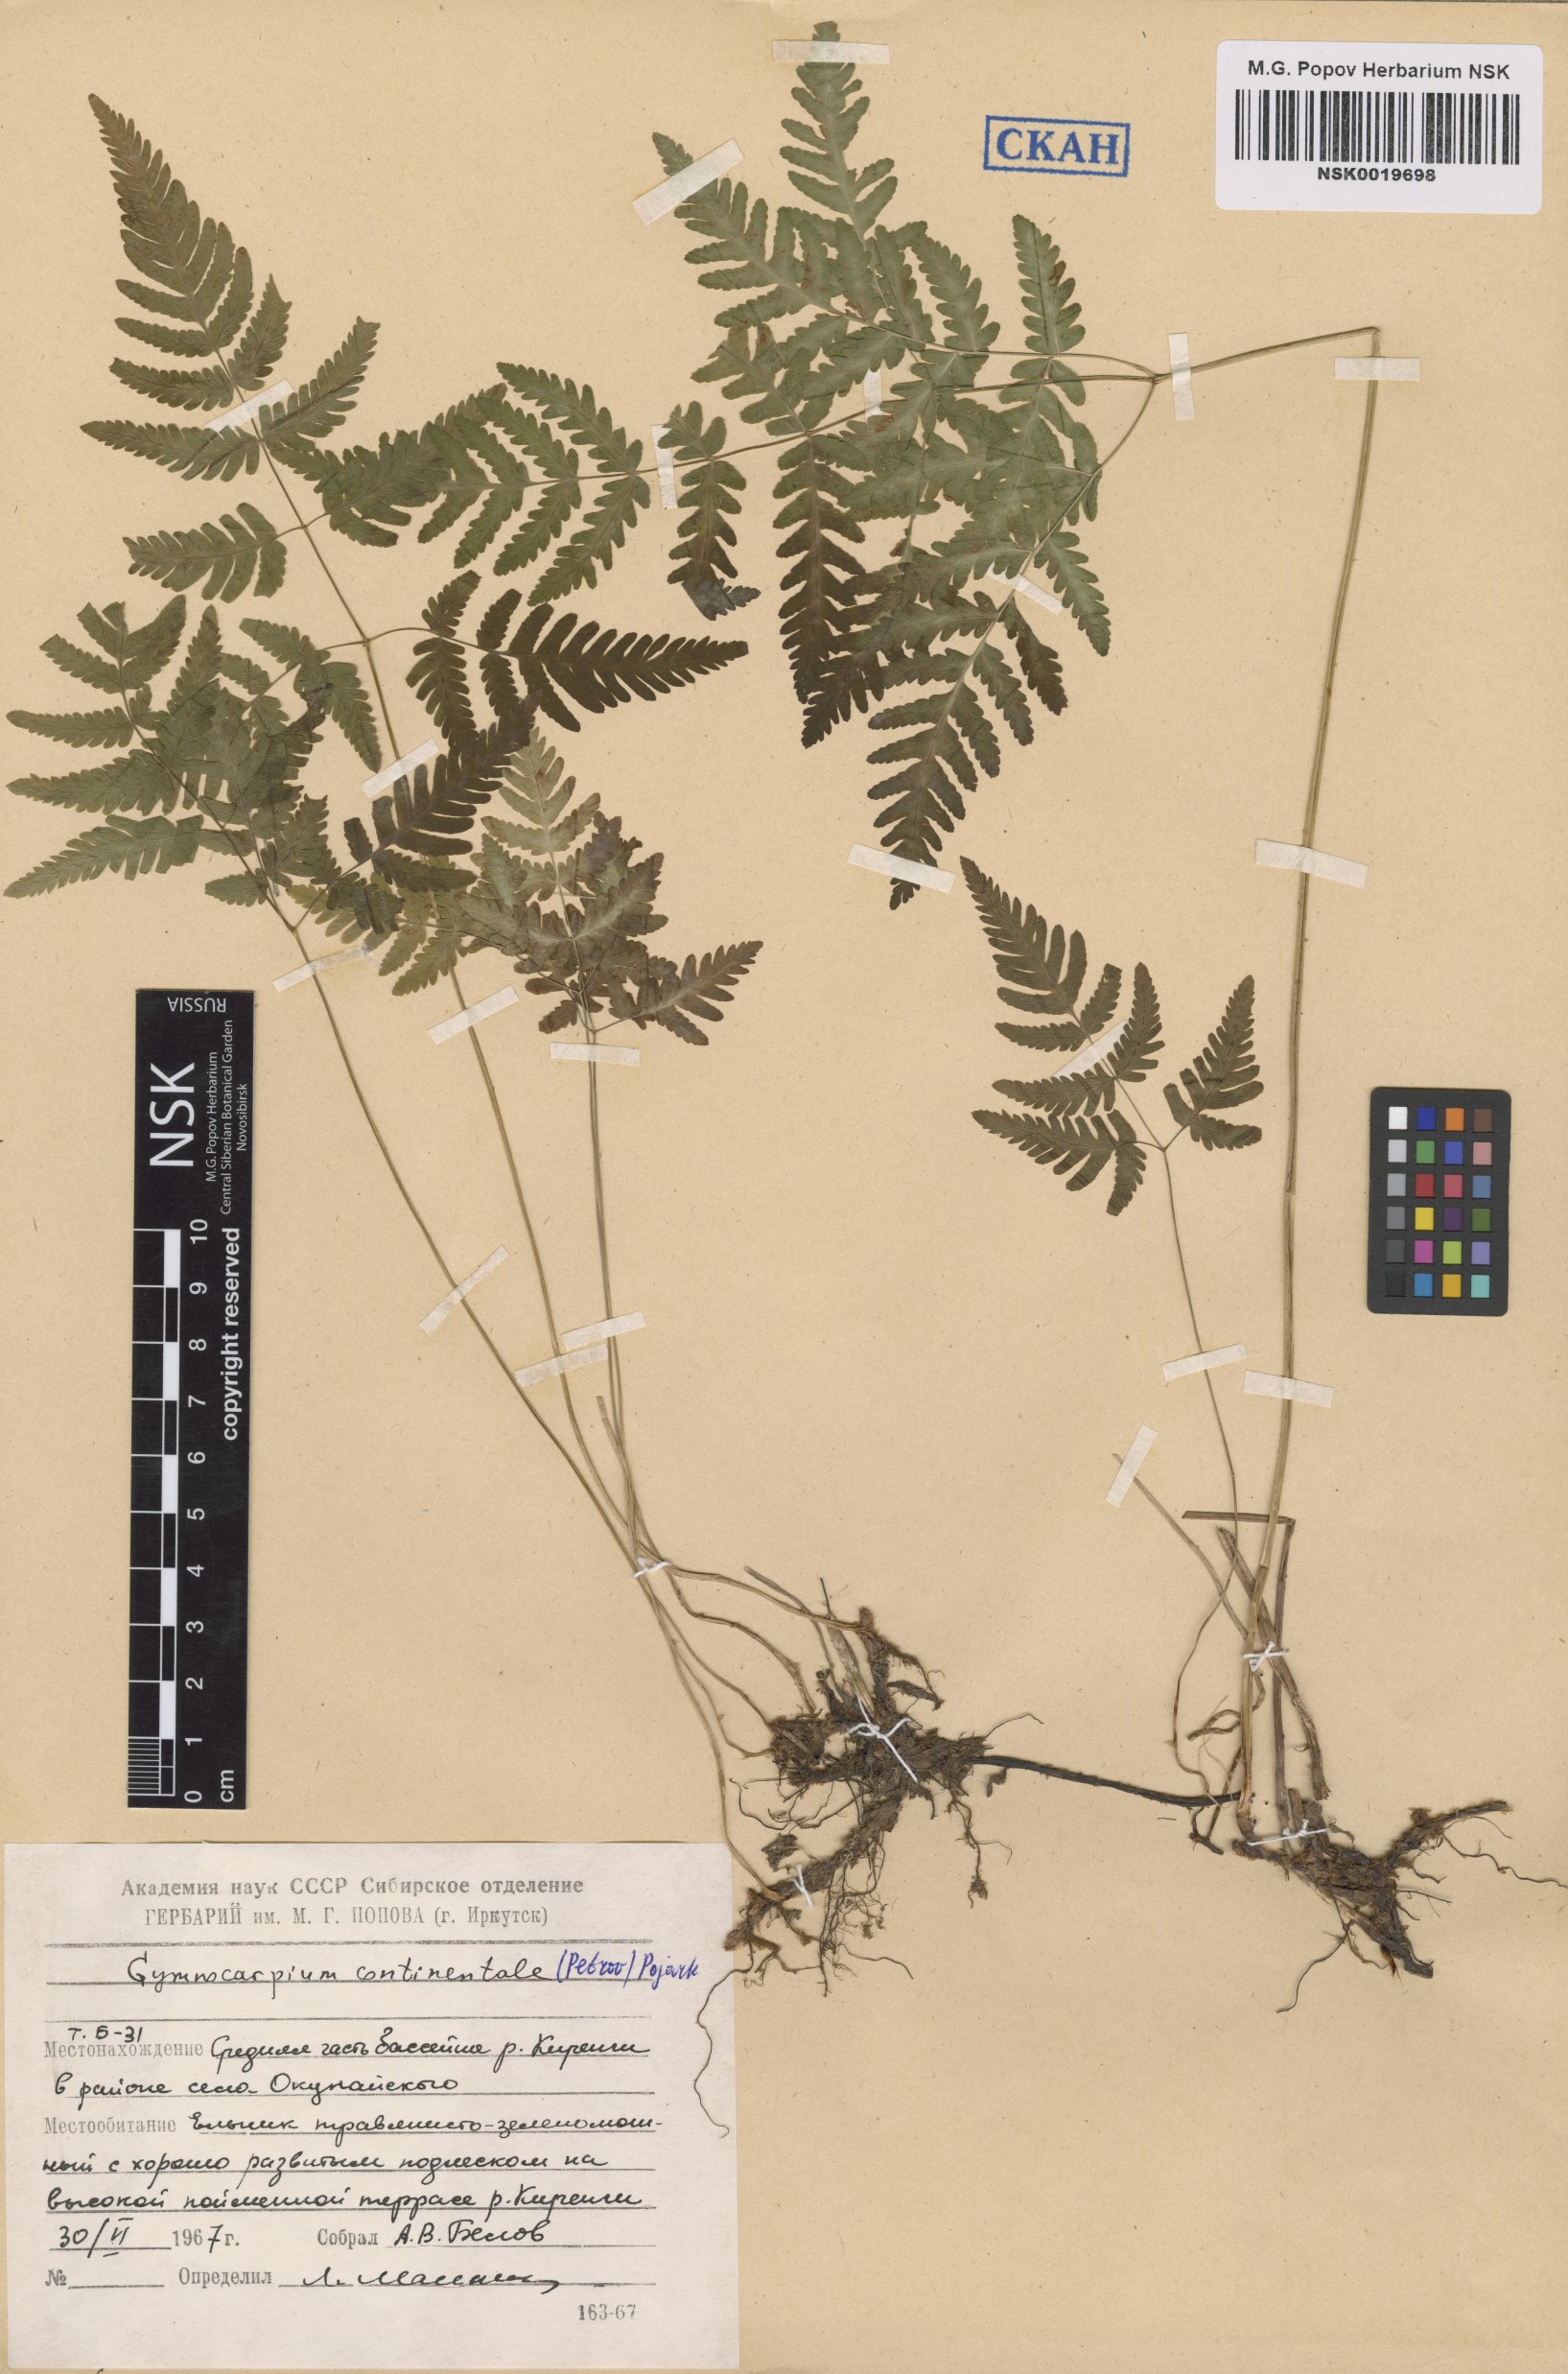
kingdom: Plantae
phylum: Tracheophyta
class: Polypodiopsida
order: Polypodiales
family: Cystopteridaceae
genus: Gymnocarpium
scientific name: Gymnocarpium continentale
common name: Asian oak fern
